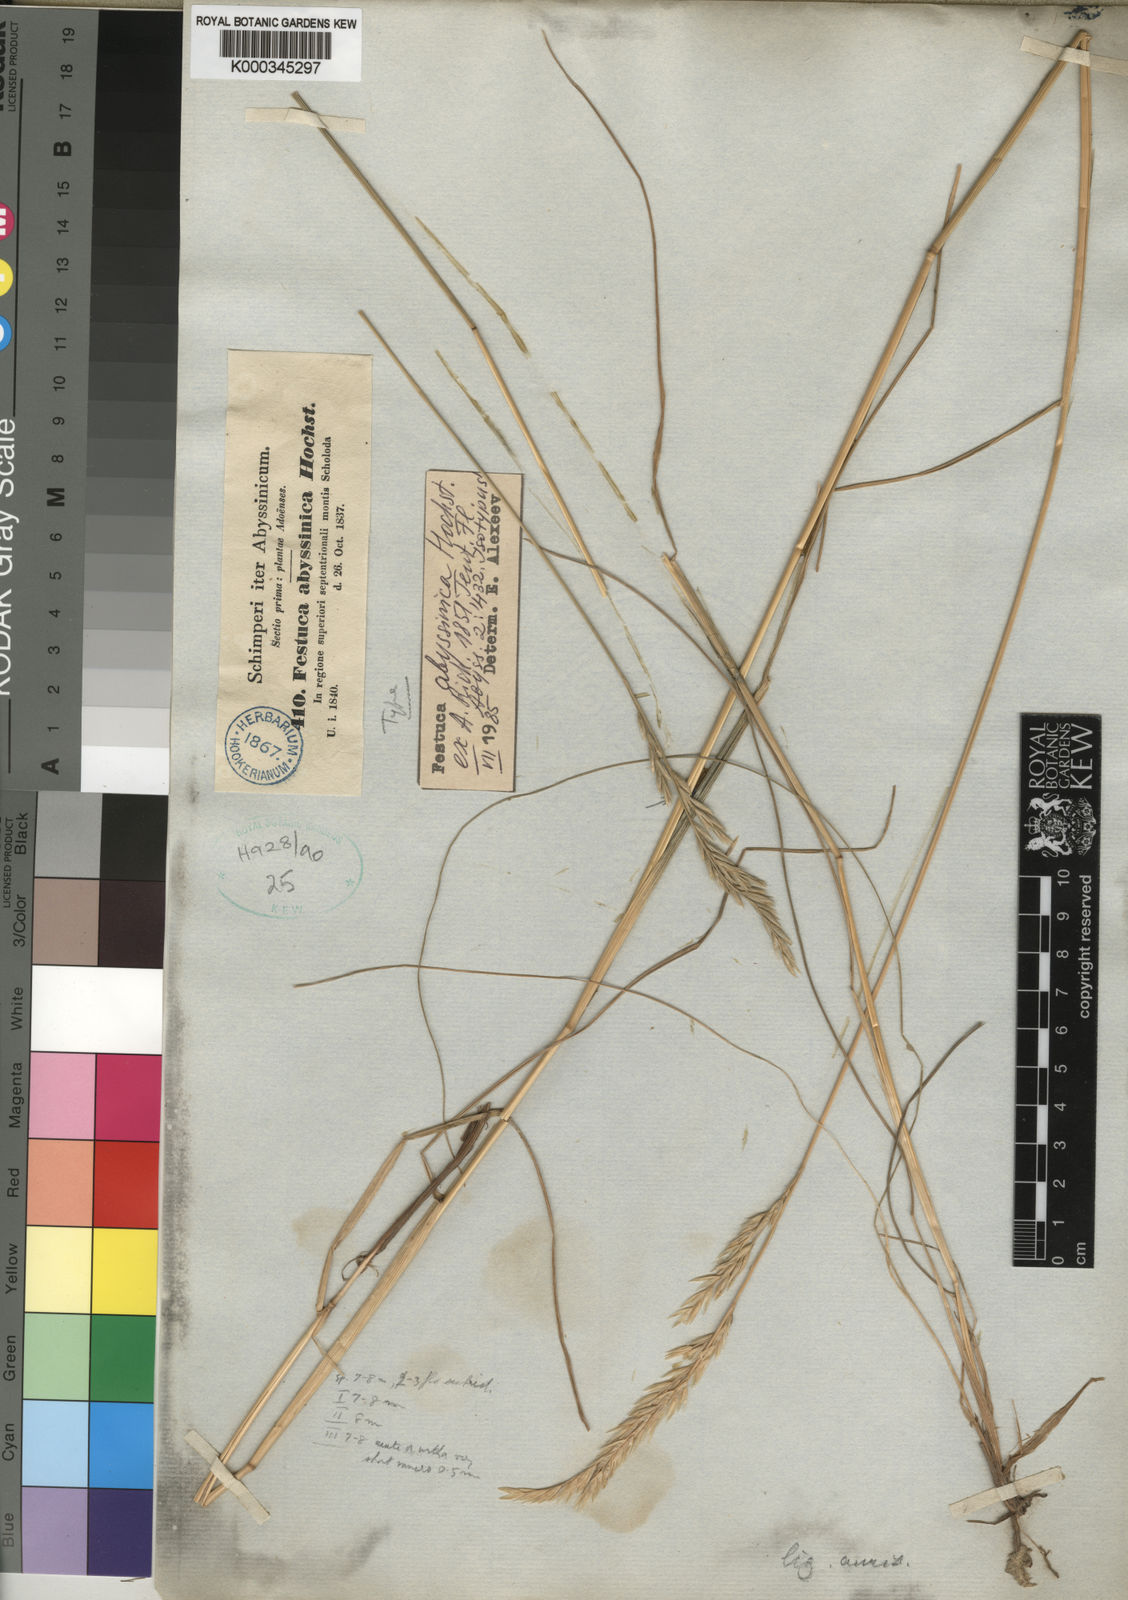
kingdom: Plantae
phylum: Tracheophyta
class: Liliopsida
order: Poales
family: Poaceae
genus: Festuca
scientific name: Festuca
